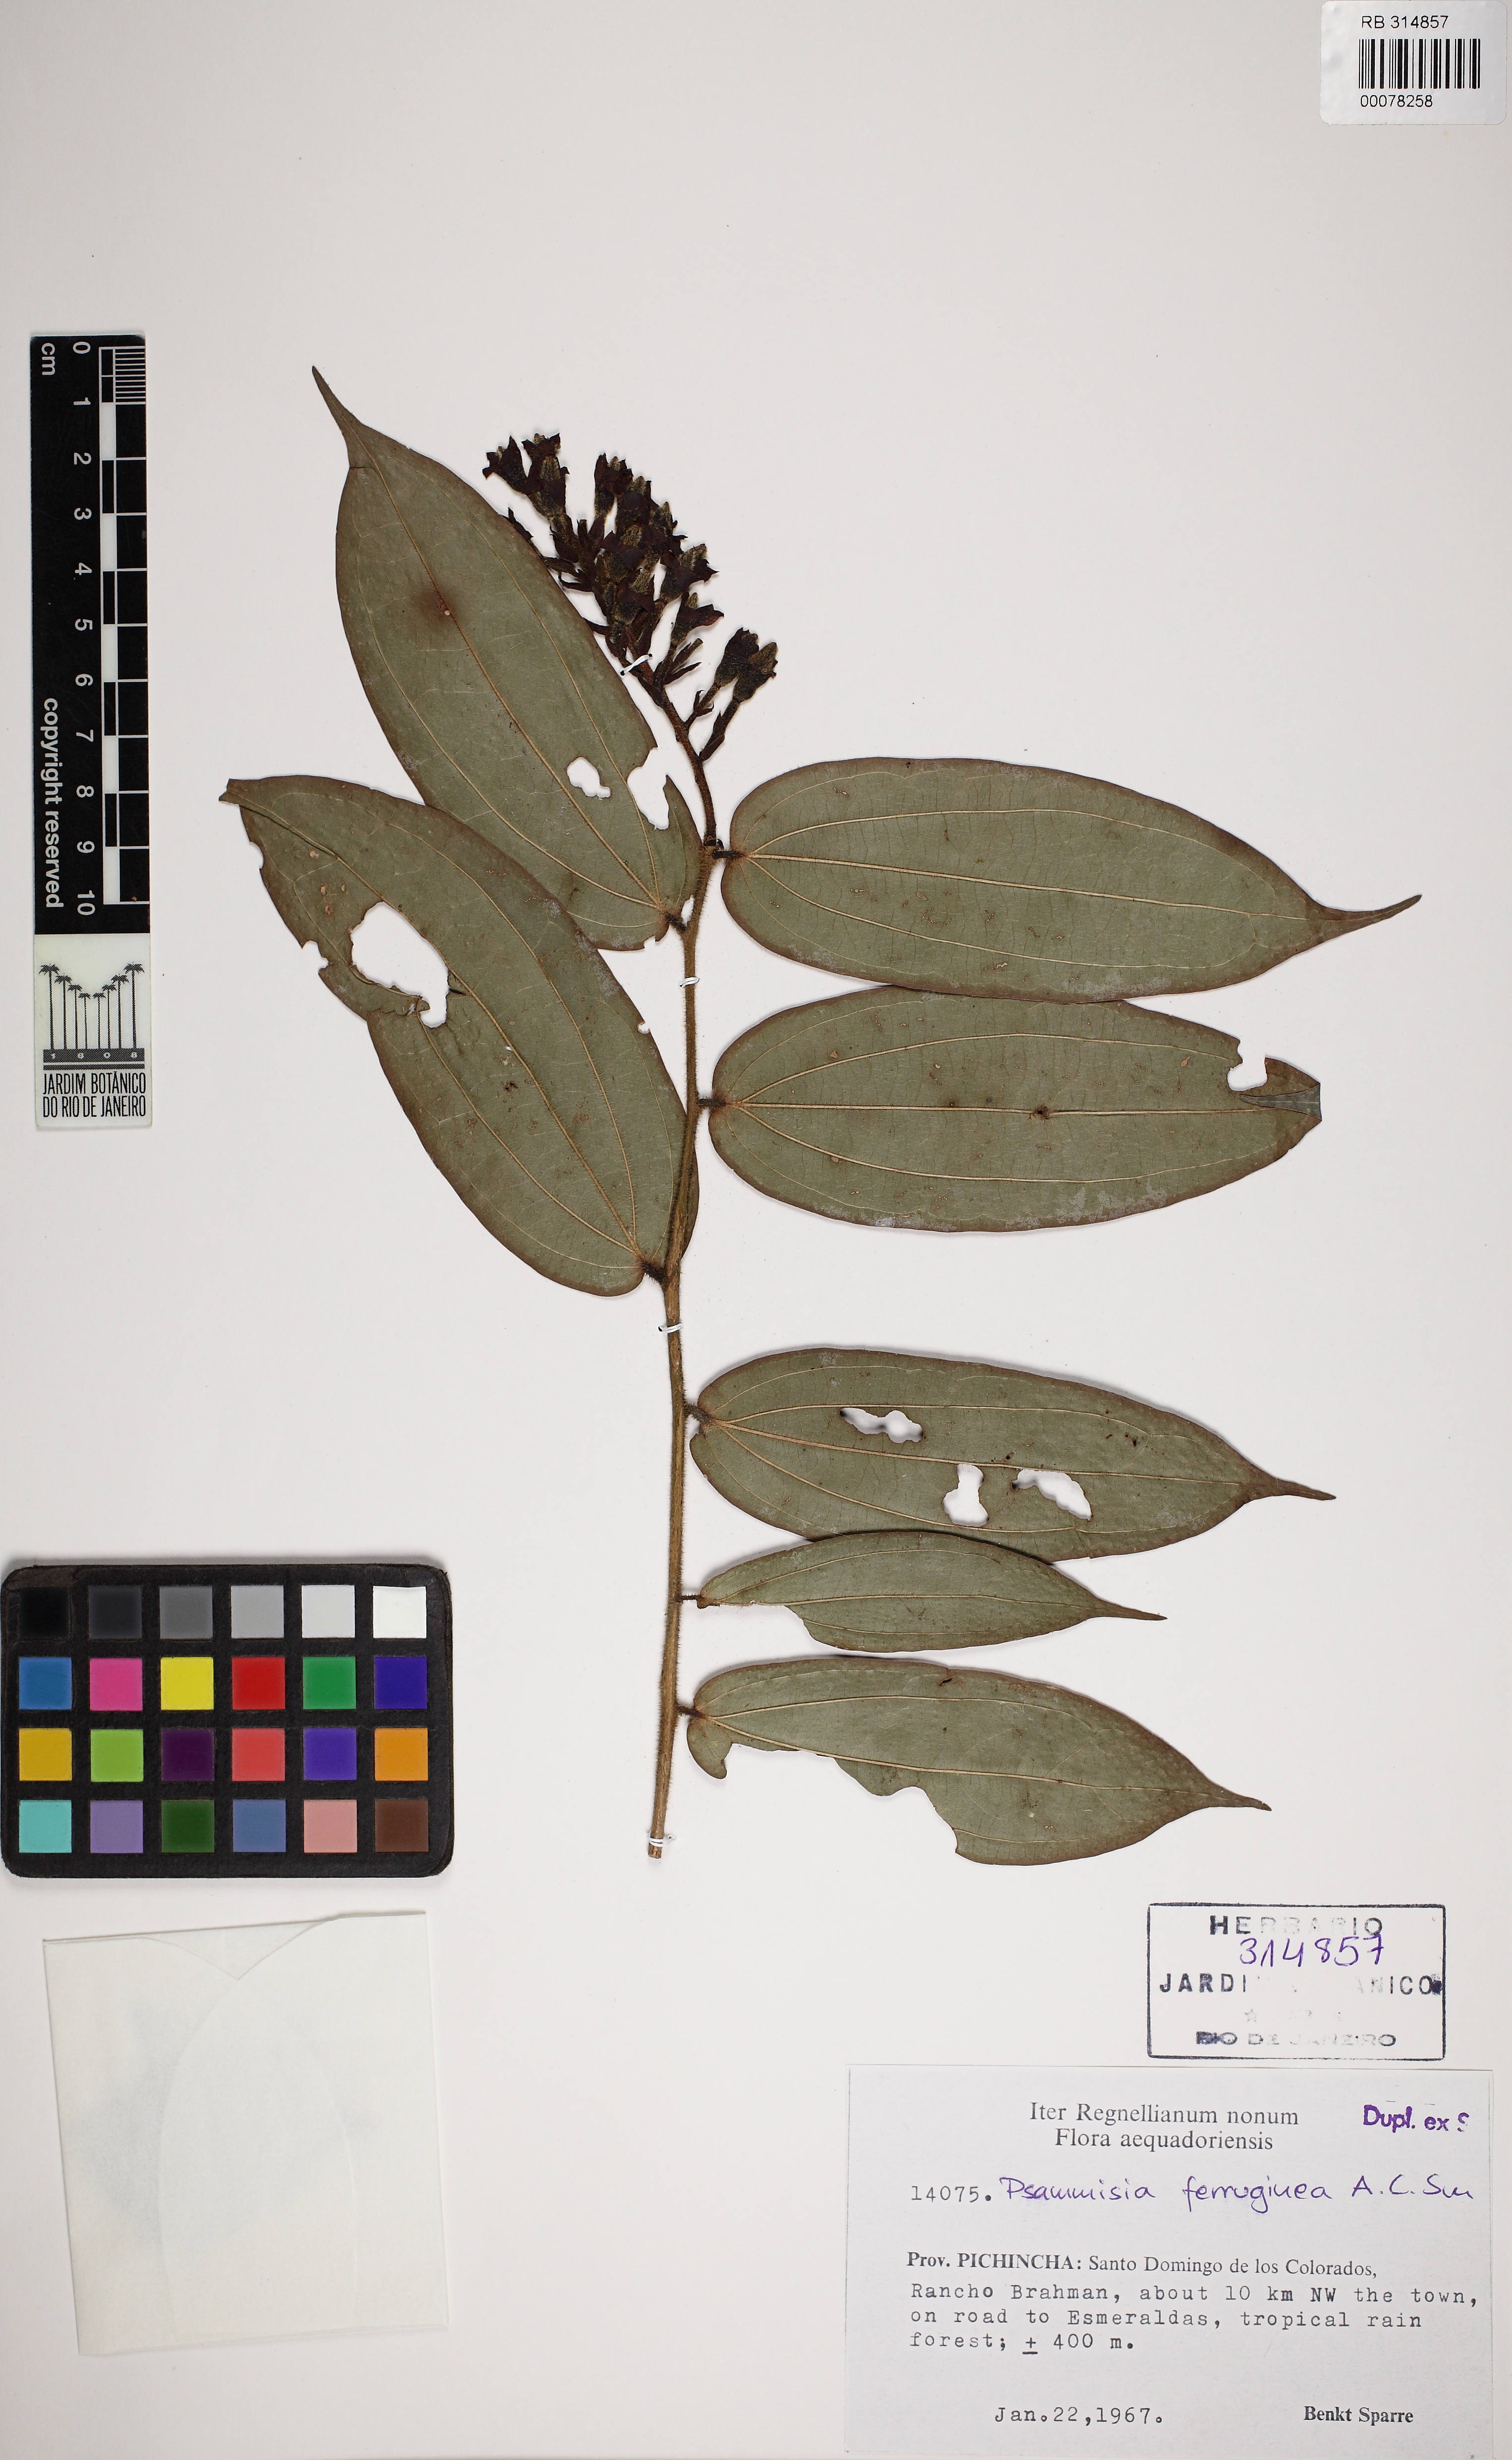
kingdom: Plantae
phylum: Tracheophyta
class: Magnoliopsida
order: Ericales
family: Ericaceae
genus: Psammisia
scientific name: Psammisia ferruginea
